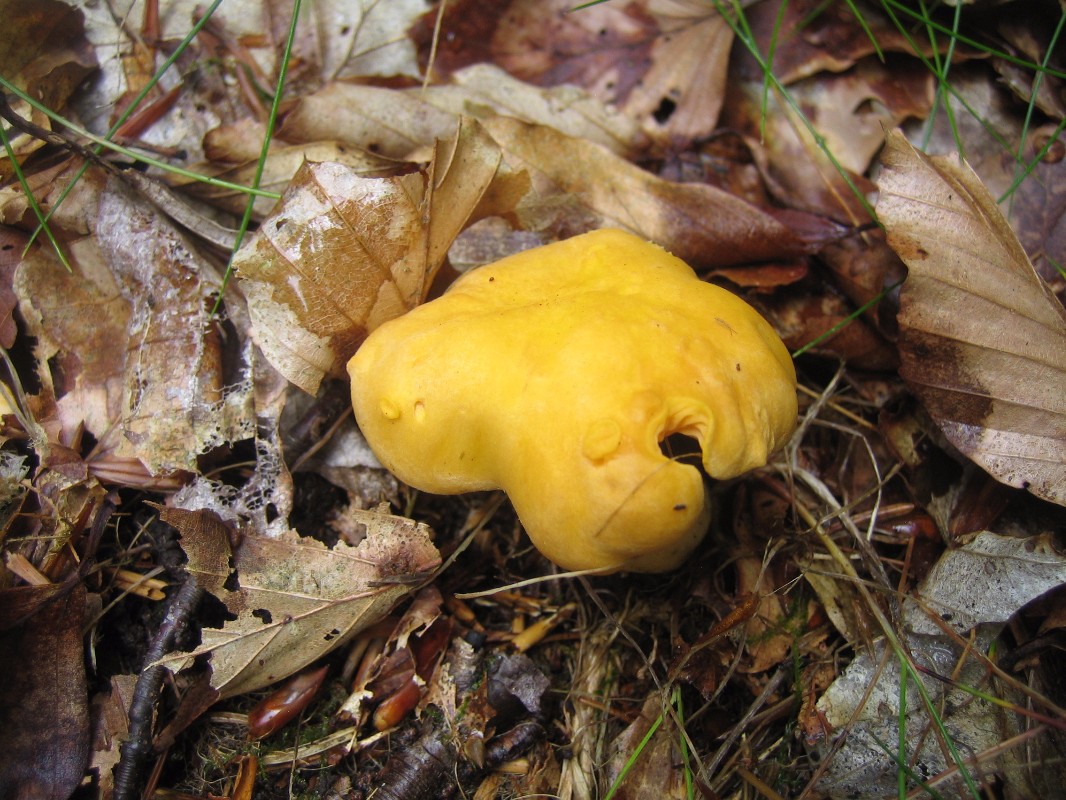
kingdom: Fungi
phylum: Basidiomycota
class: Agaricomycetes
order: Cantharellales
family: Hydnaceae
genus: Cantharellus
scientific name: Cantharellus cibarius
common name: almindelig kantarel
